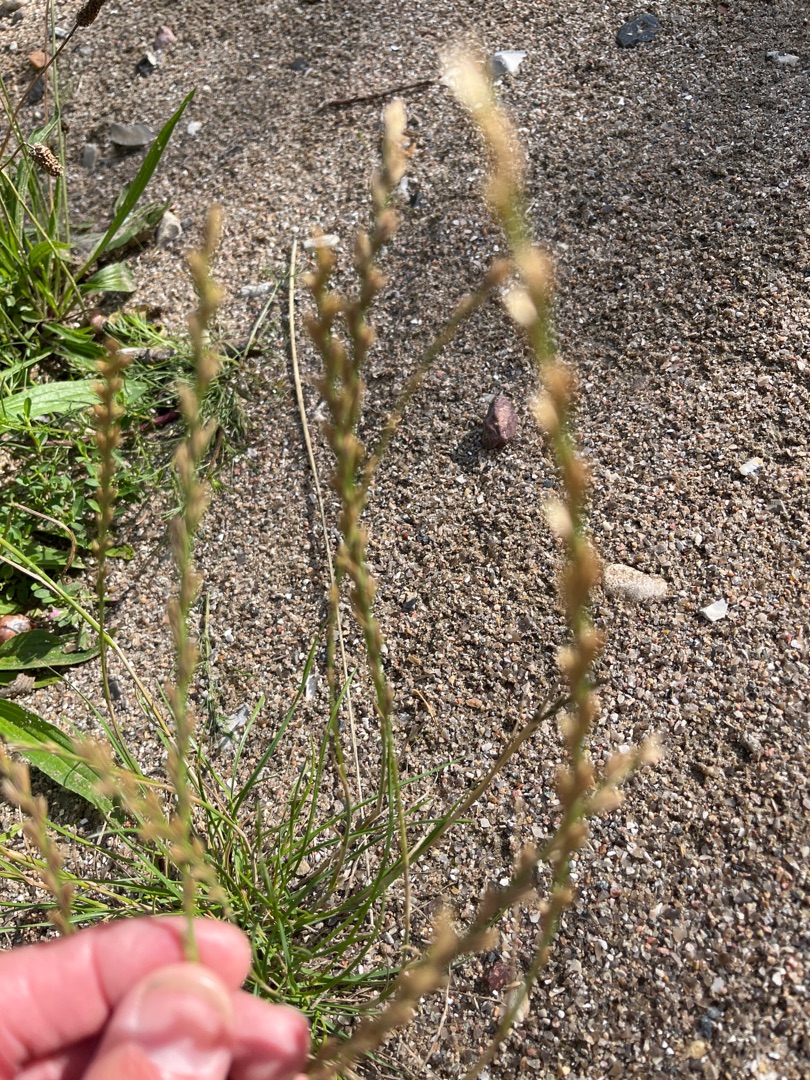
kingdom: Plantae
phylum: Tracheophyta
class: Liliopsida
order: Poales
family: Poaceae
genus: Lolium
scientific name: Lolium perenne
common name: Almindelig rajgræs
